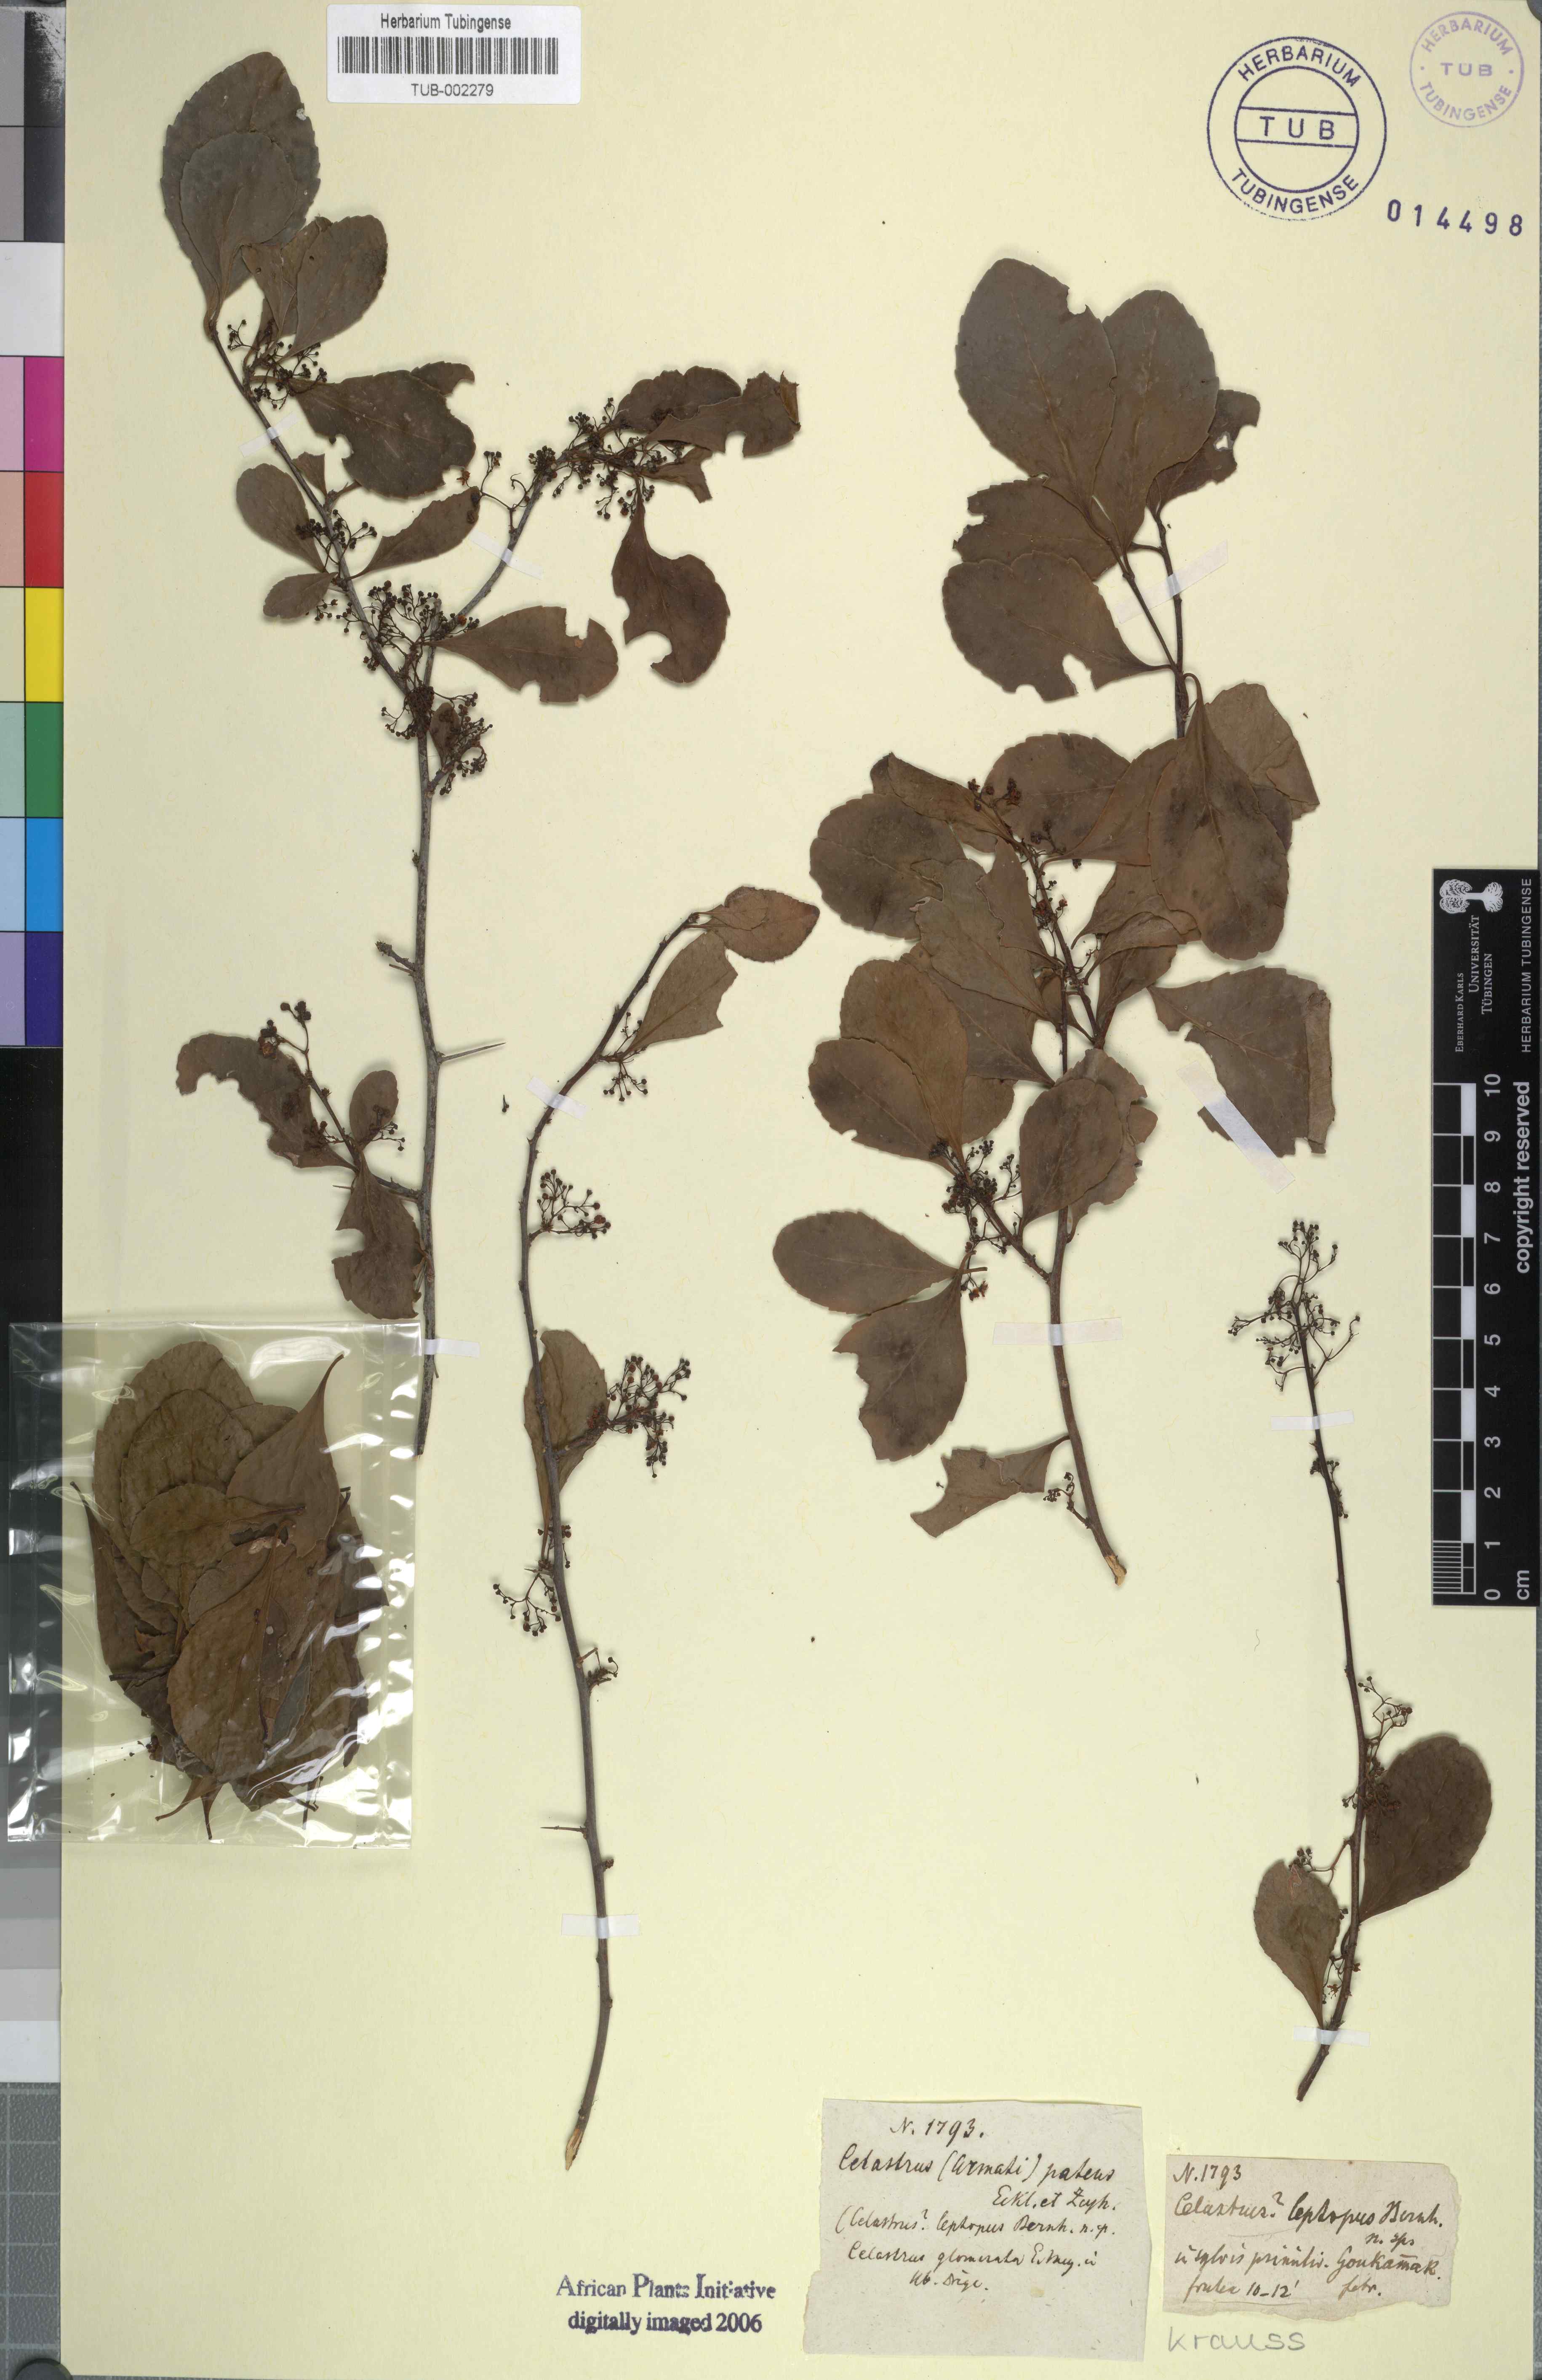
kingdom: Plantae
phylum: Tracheophyta
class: Magnoliopsida
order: Celastrales
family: Celastraceae
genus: Gymnosporia
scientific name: Gymnosporia buxifolia
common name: Common spike-thorn
